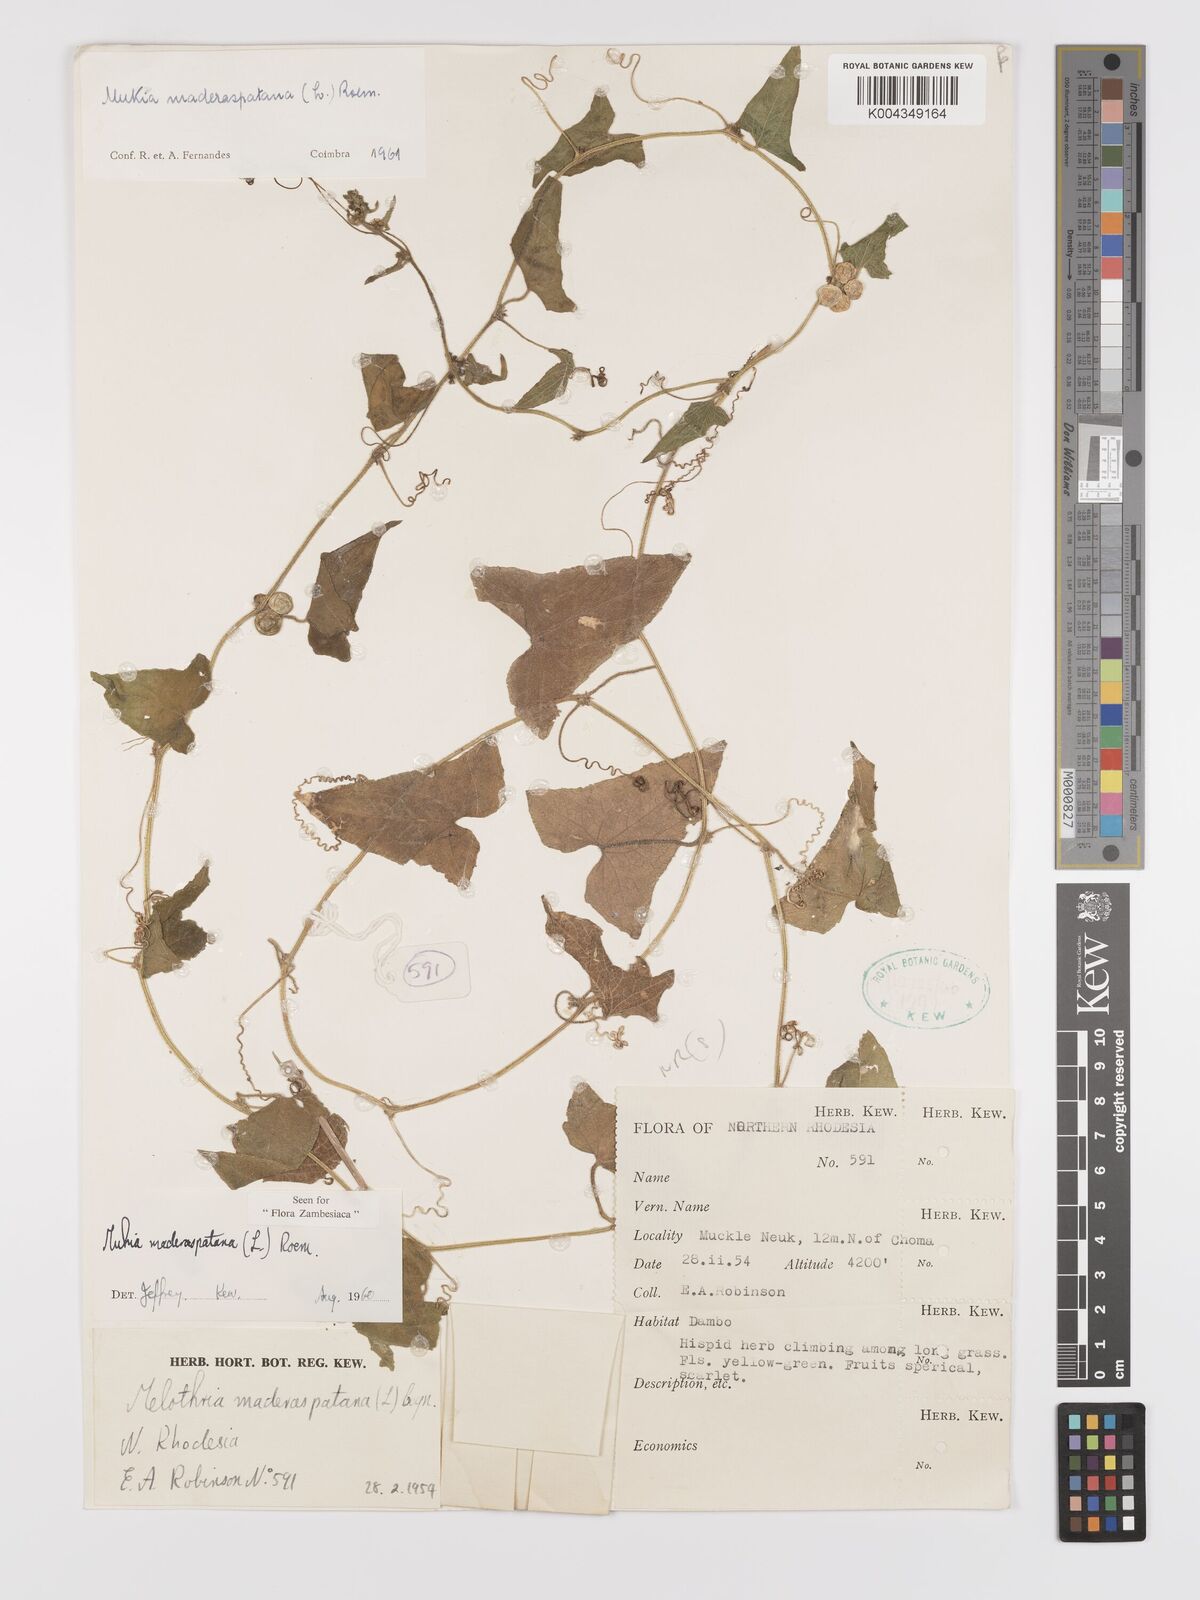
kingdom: Plantae
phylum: Tracheophyta
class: Magnoliopsida
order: Cucurbitales
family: Cucurbitaceae
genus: Cucumis
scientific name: Cucumis maderaspatanus
